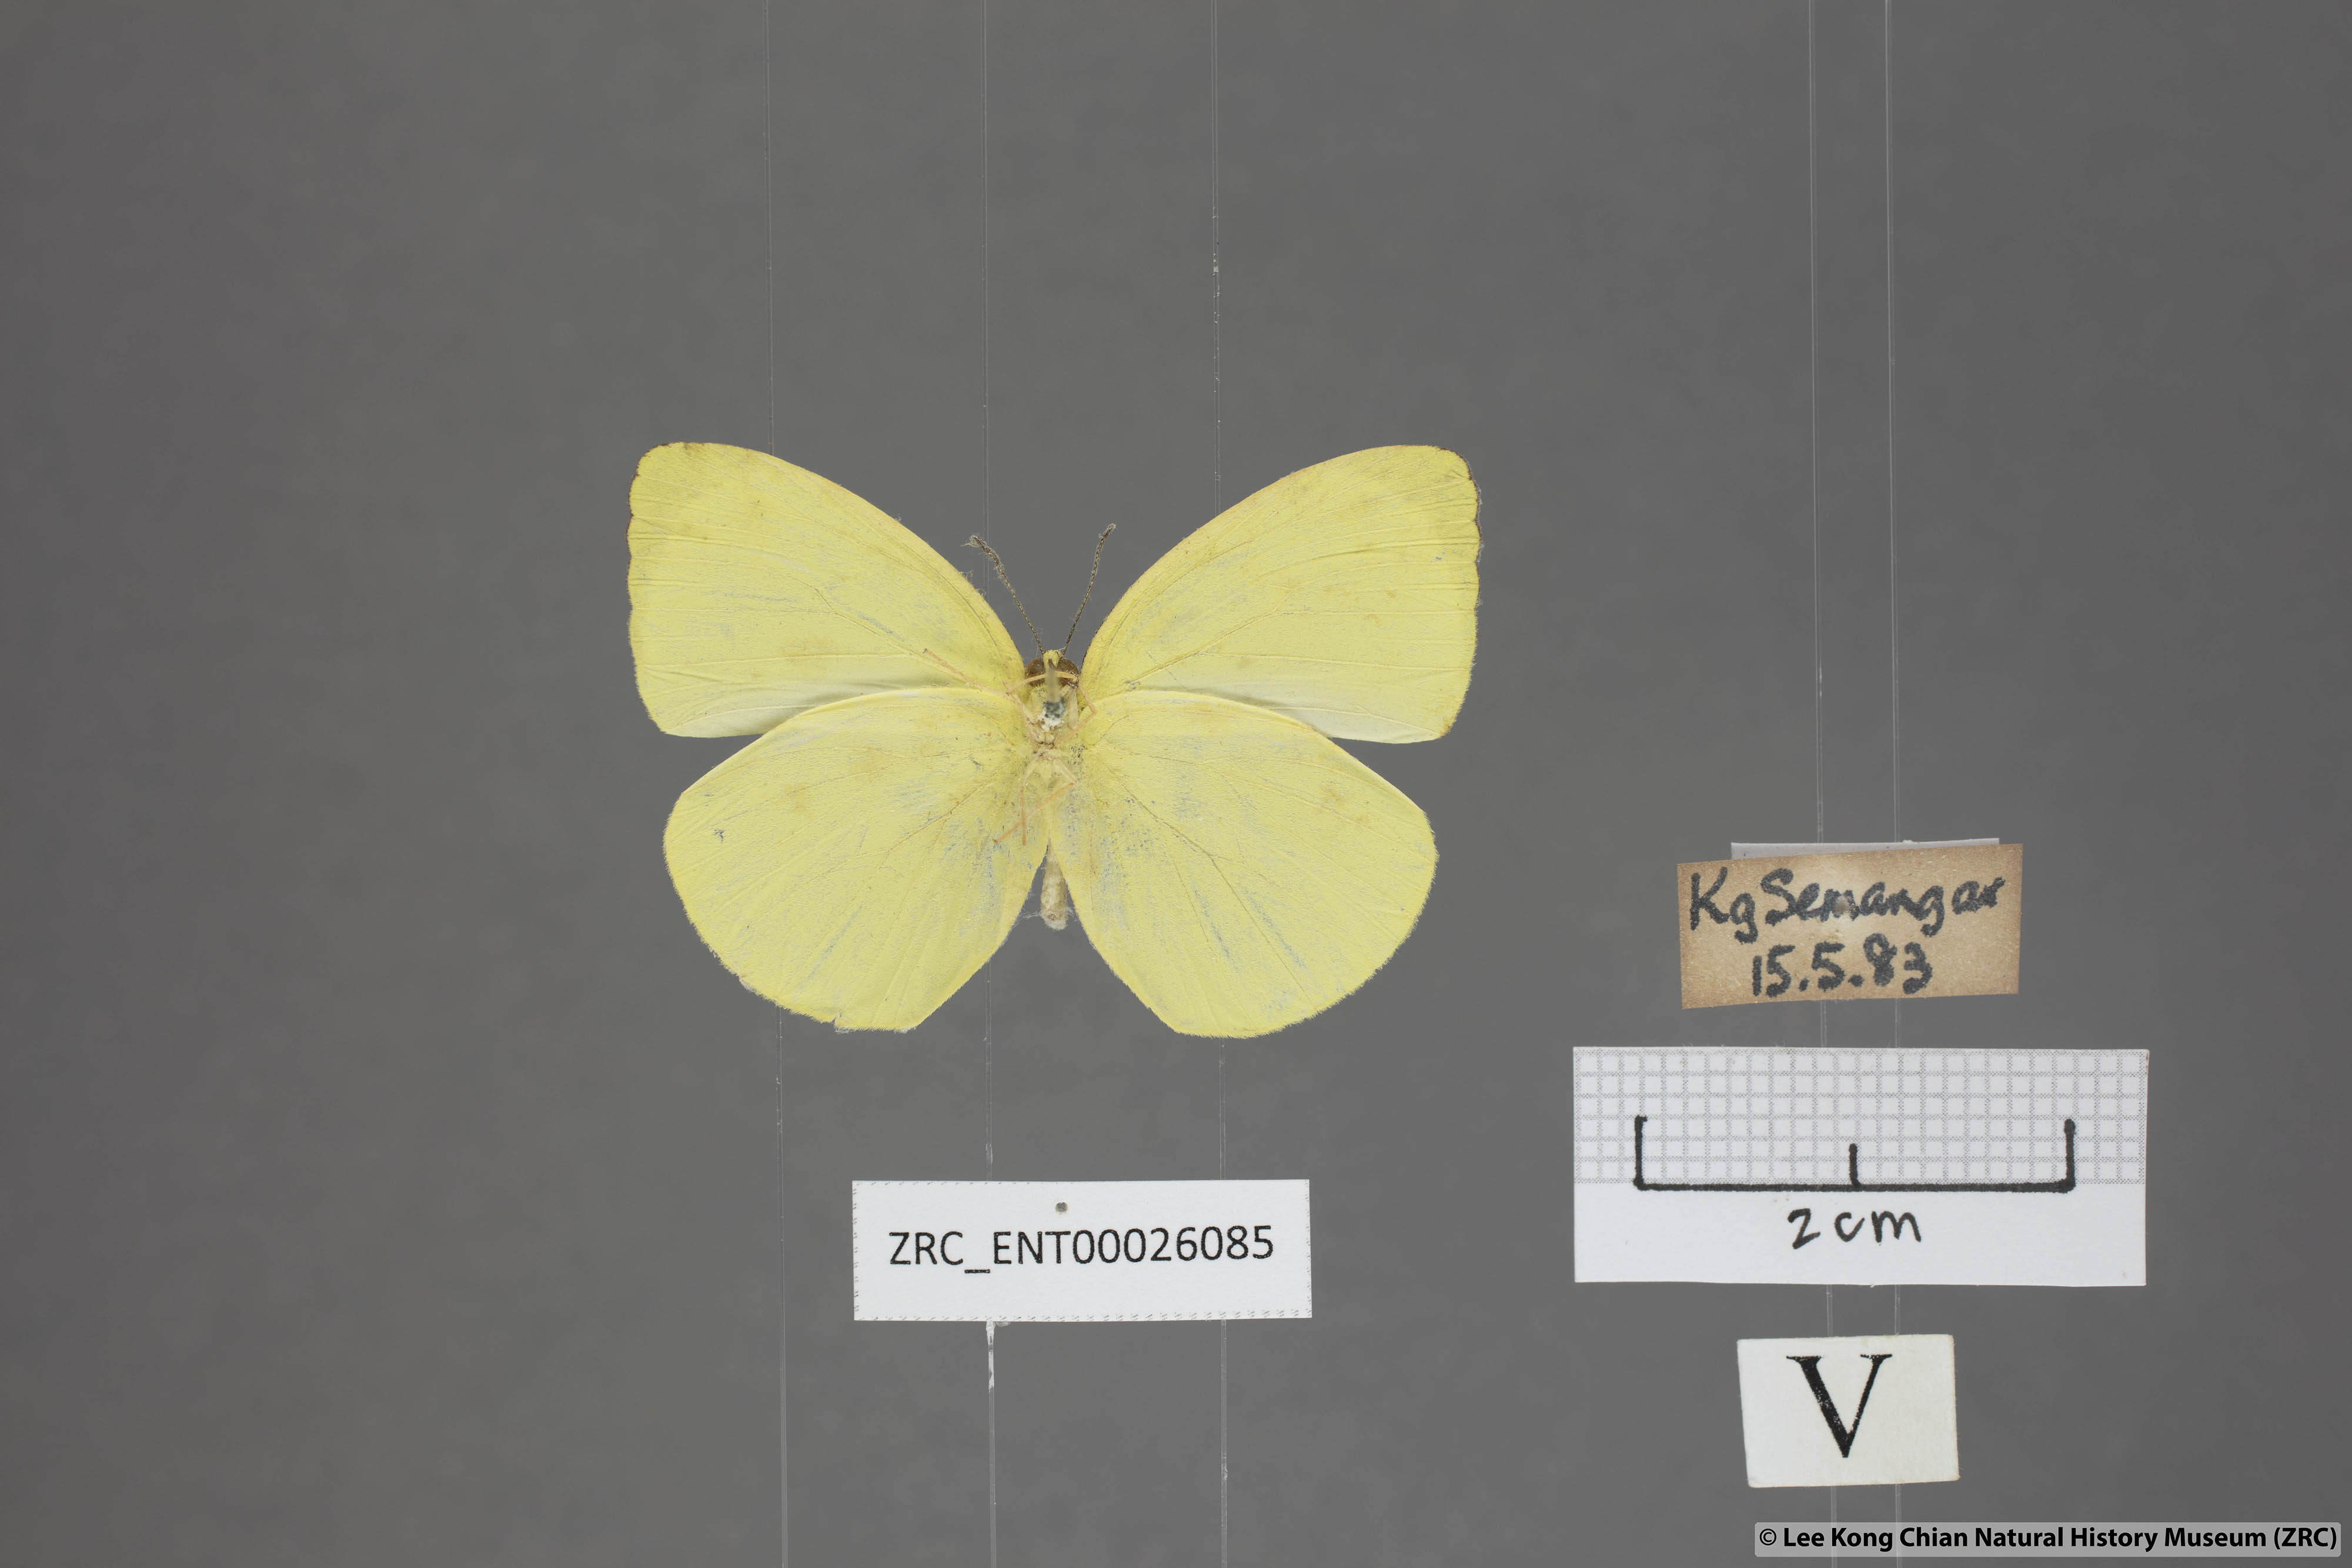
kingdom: Animalia
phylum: Arthropoda
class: Insecta
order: Lepidoptera
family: Pieridae
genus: Gandaca
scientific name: Gandaca harina
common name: Tree yellow
